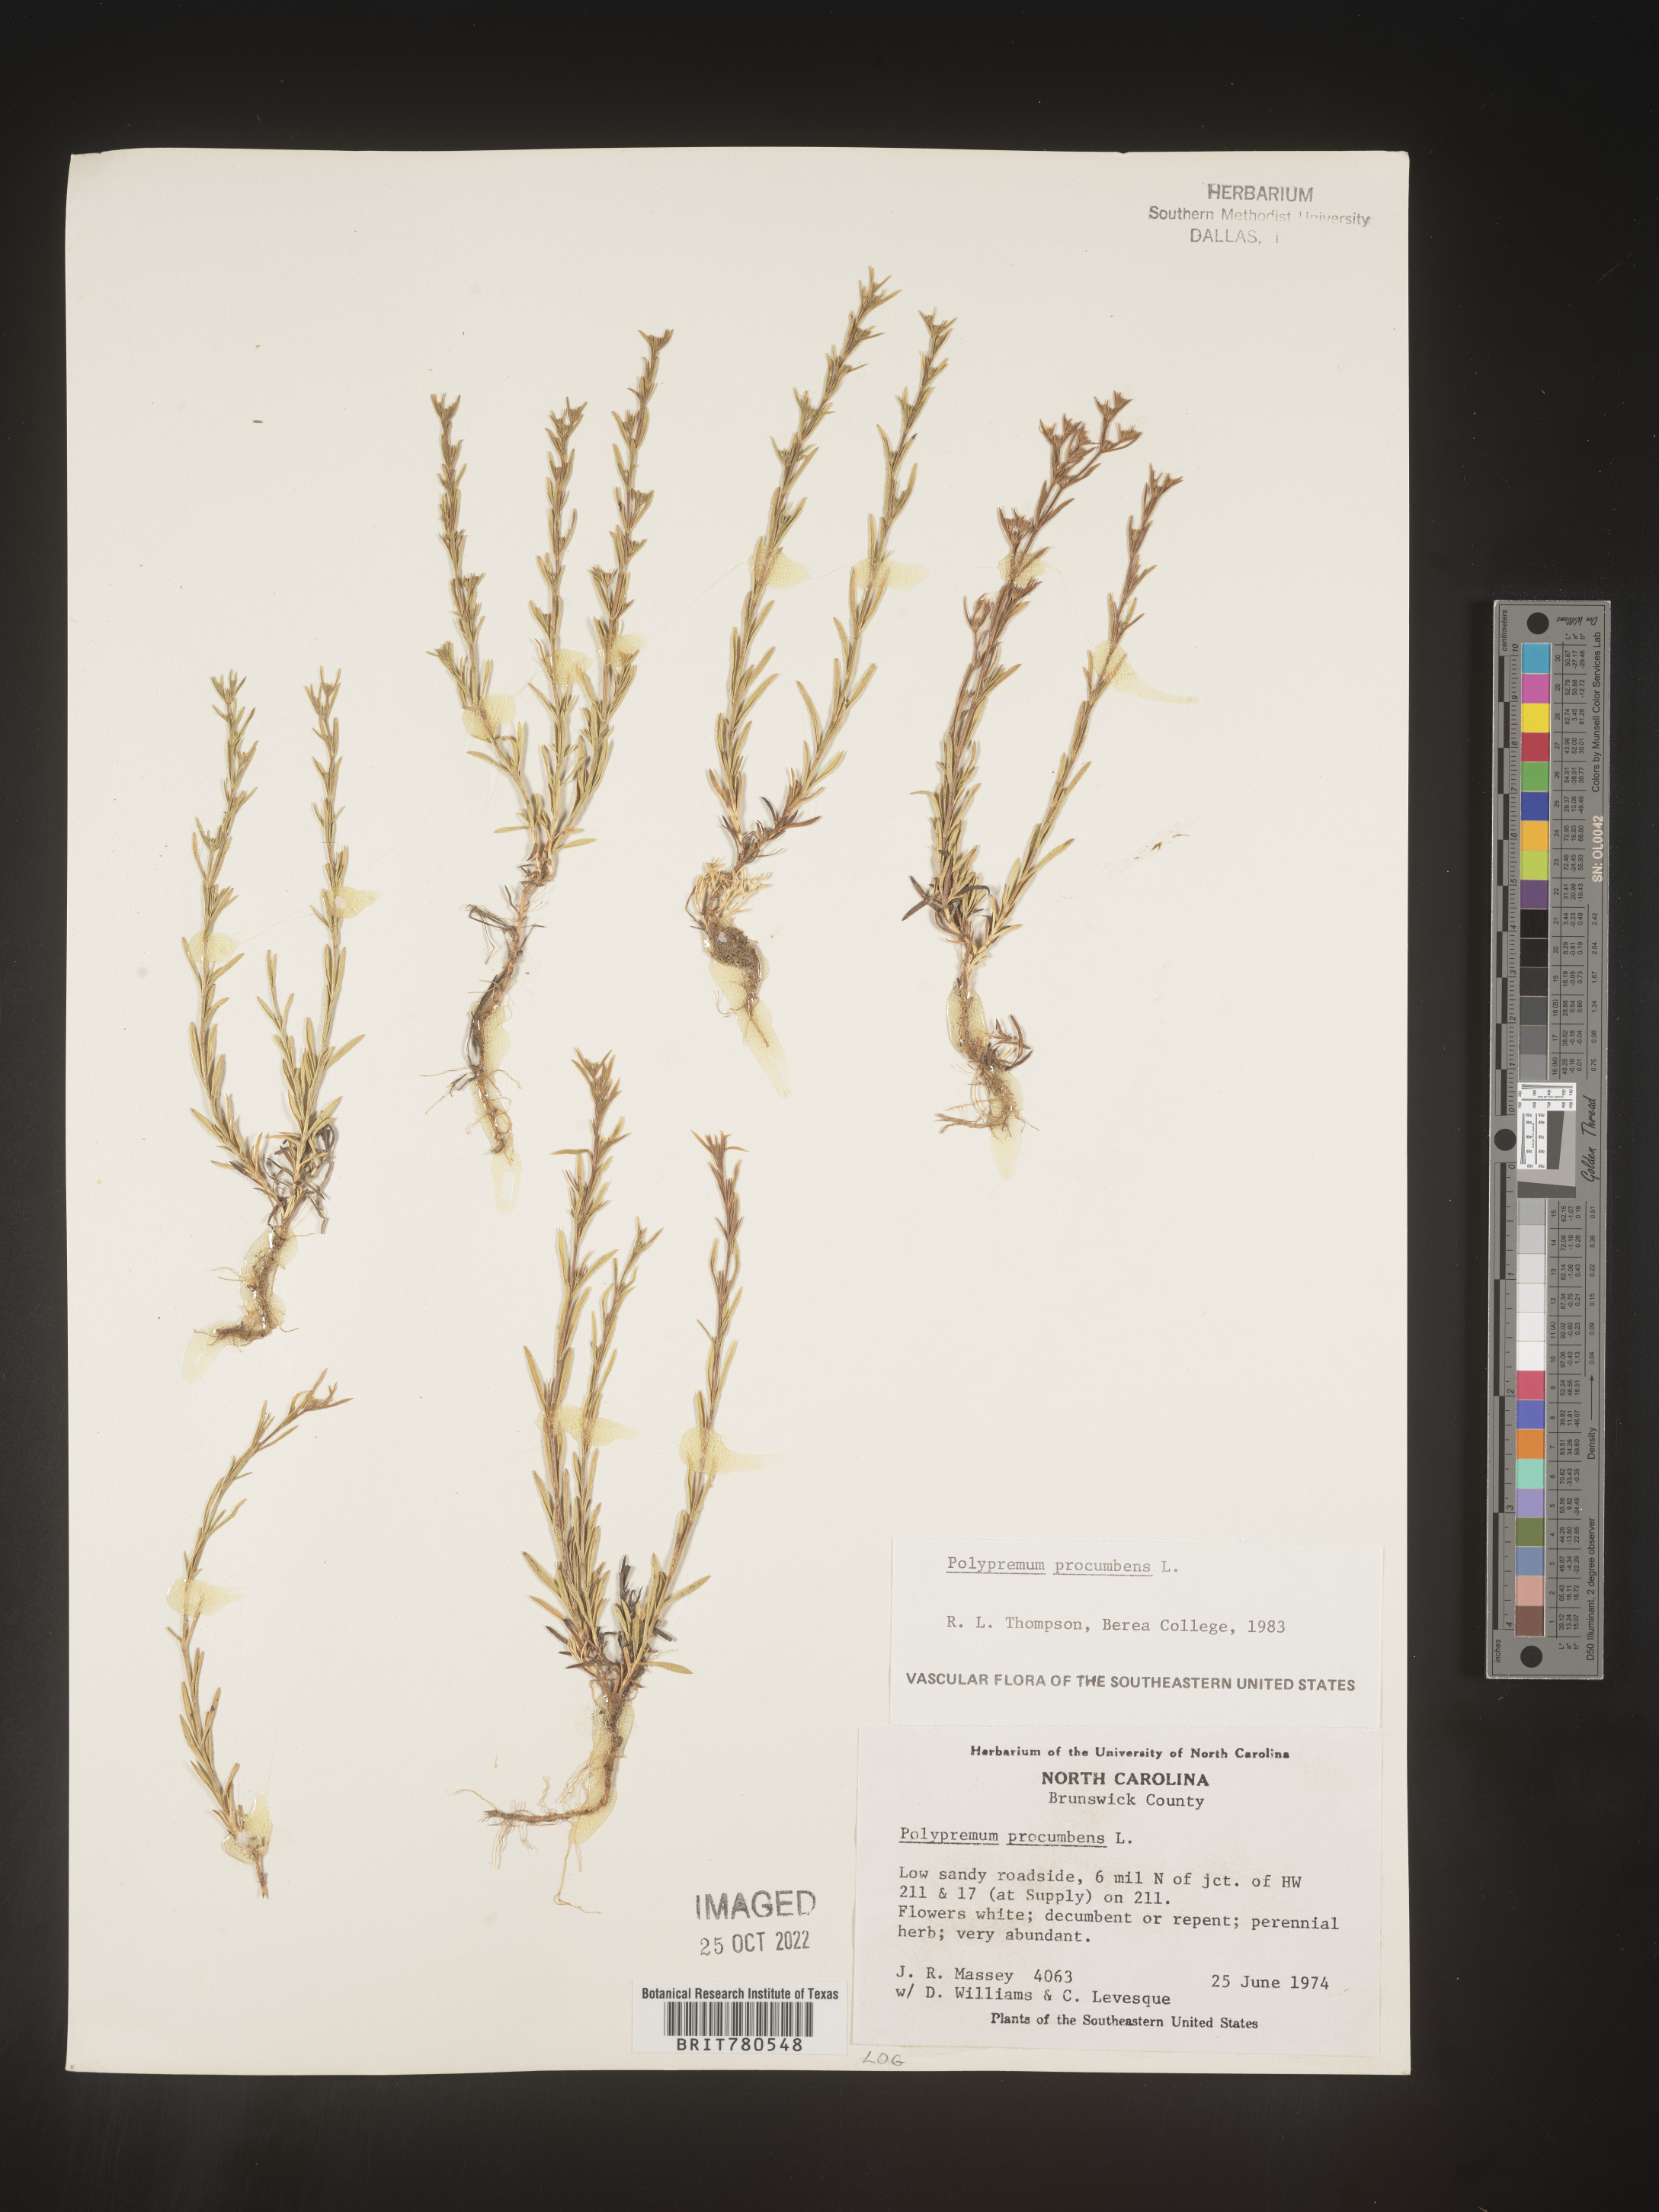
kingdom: Plantae
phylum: Tracheophyta
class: Magnoliopsida
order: Lamiales
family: Tetrachondraceae
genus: Polypremum
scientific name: Polypremum procumbens
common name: Juniper-leaf
